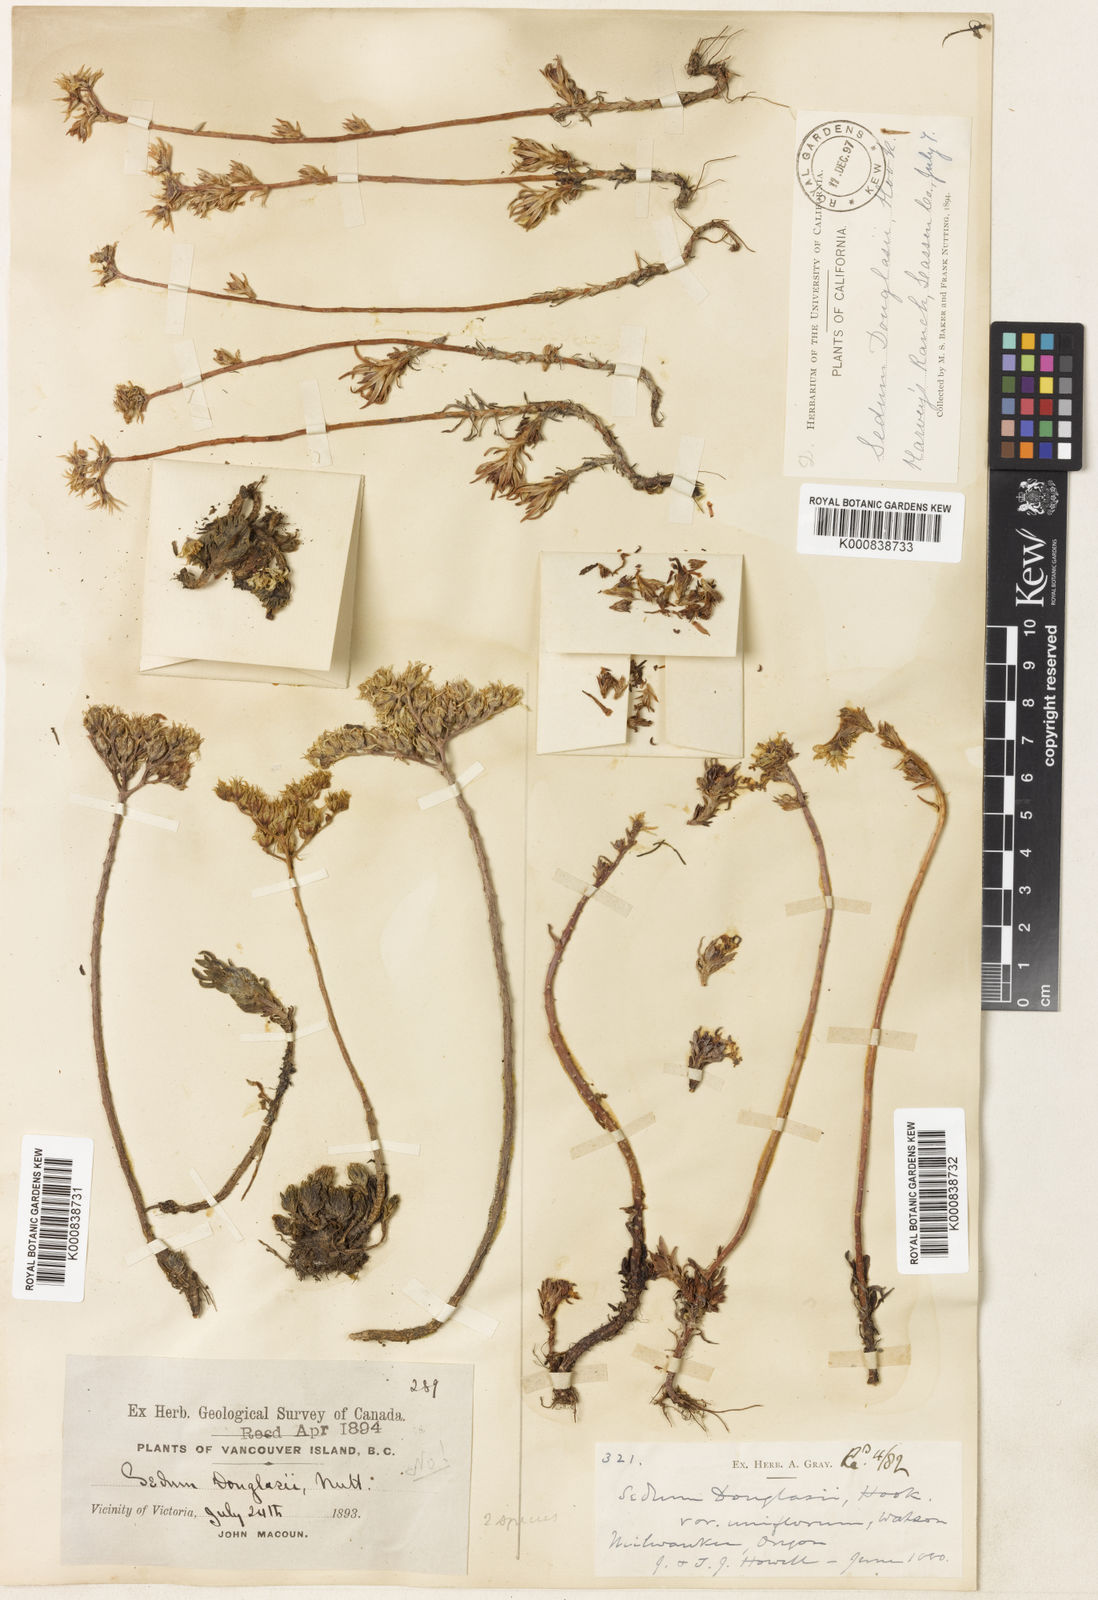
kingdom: Plantae
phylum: Tracheophyta
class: Magnoliopsida
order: Saxifragales
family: Crassulaceae
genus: Sedum
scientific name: Sedum stenopetalum
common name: Narrow-petaled stonecrop
